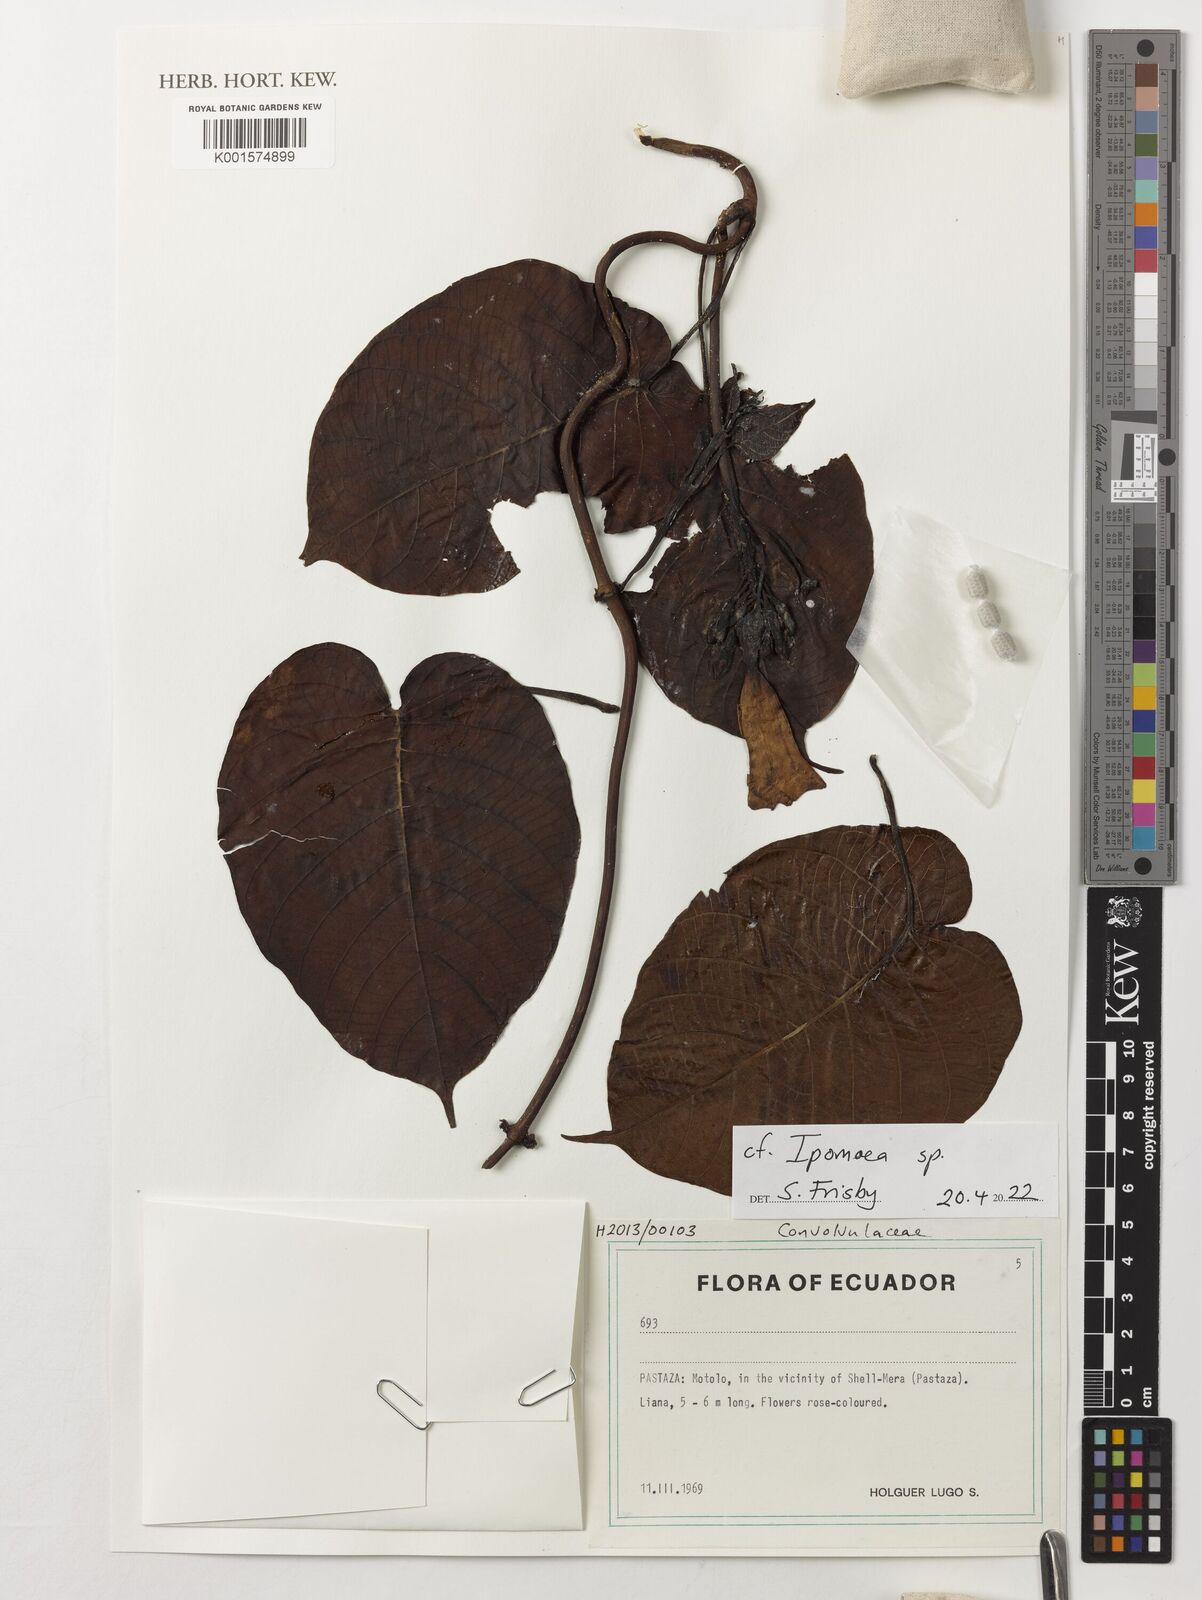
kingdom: Plantae
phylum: Tracheophyta
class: Magnoliopsida
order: Solanales
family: Convolvulaceae
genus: Ipomoea
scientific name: Ipomoea
